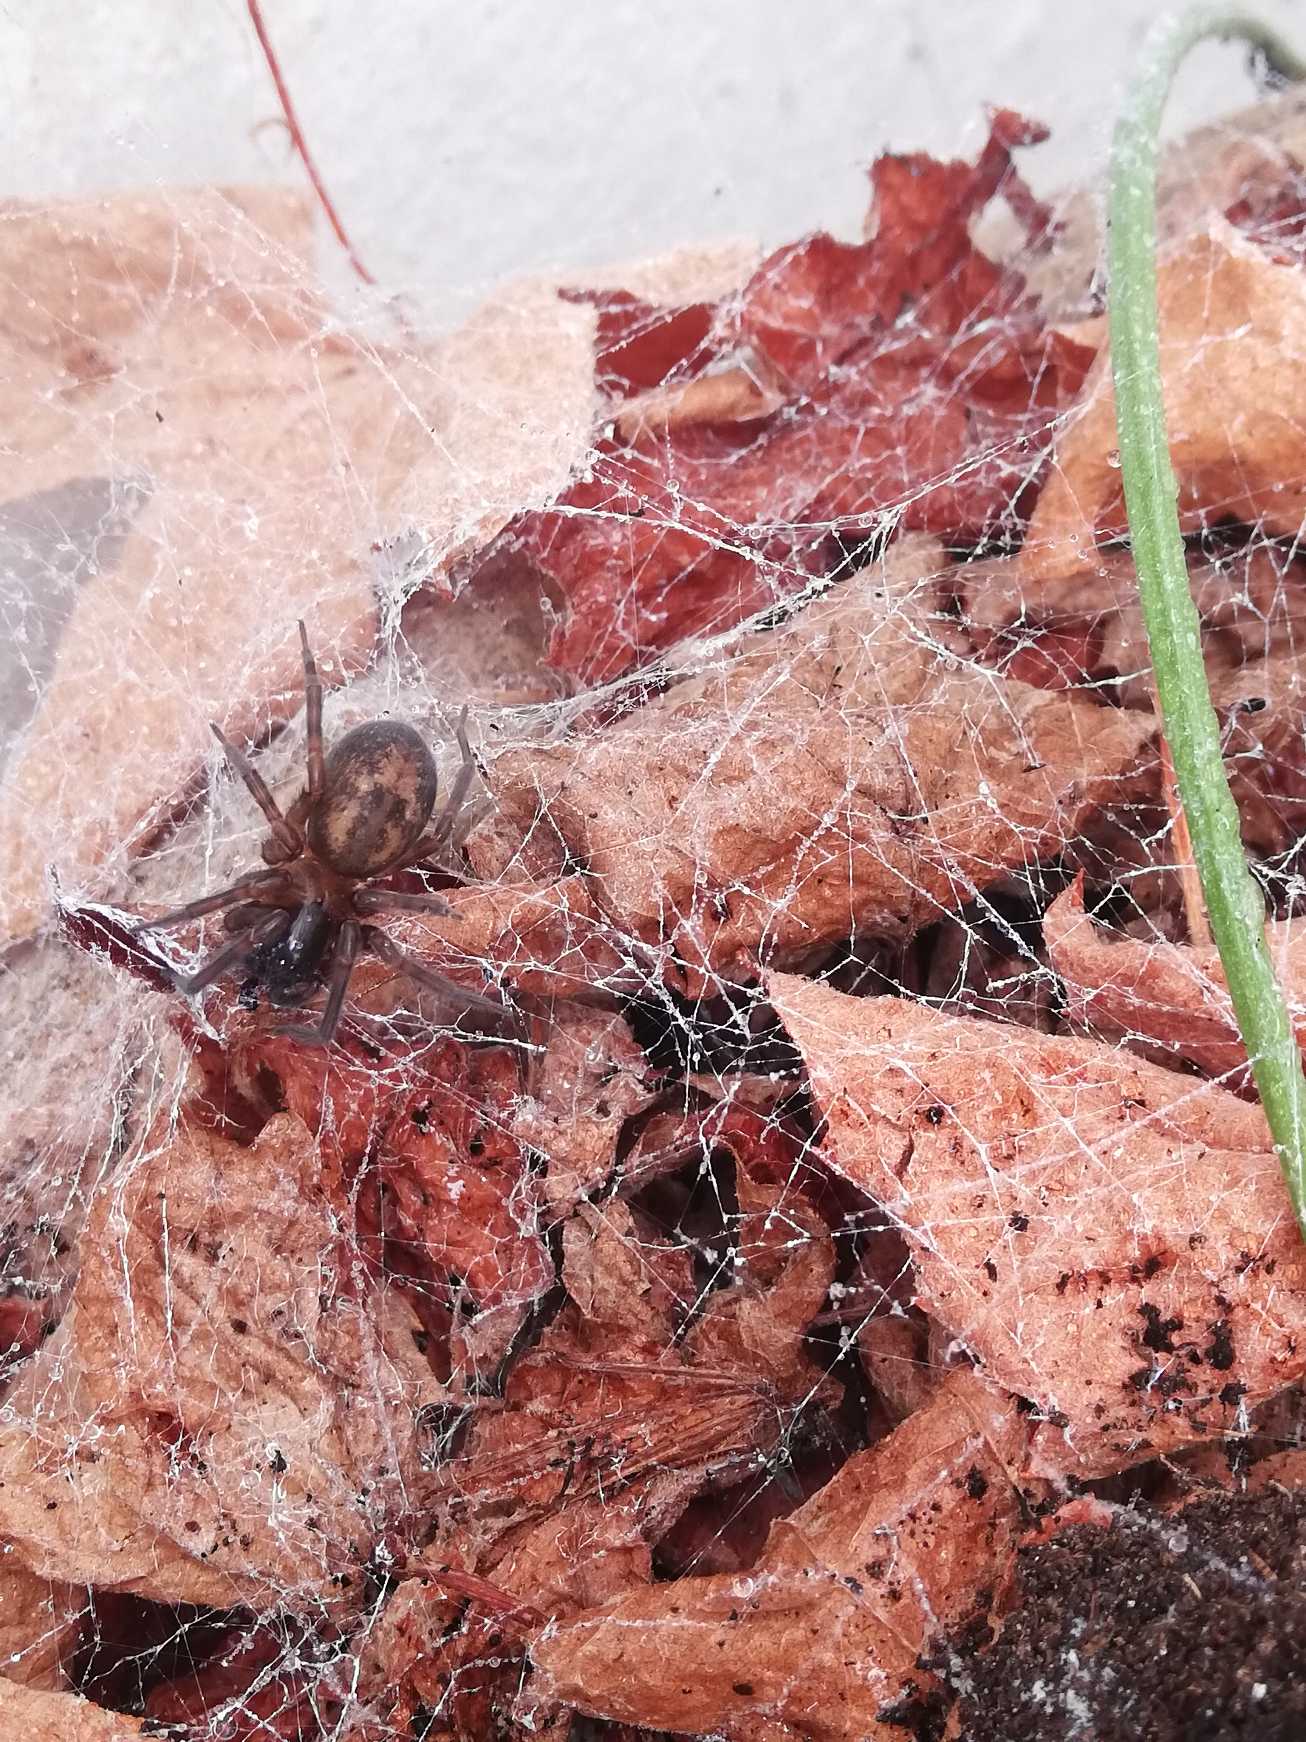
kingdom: Animalia
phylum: Arthropoda
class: Arachnida
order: Araneae
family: Amaurobiidae
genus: Amaurobius
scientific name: Amaurobius similis
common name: Huskartespinder
